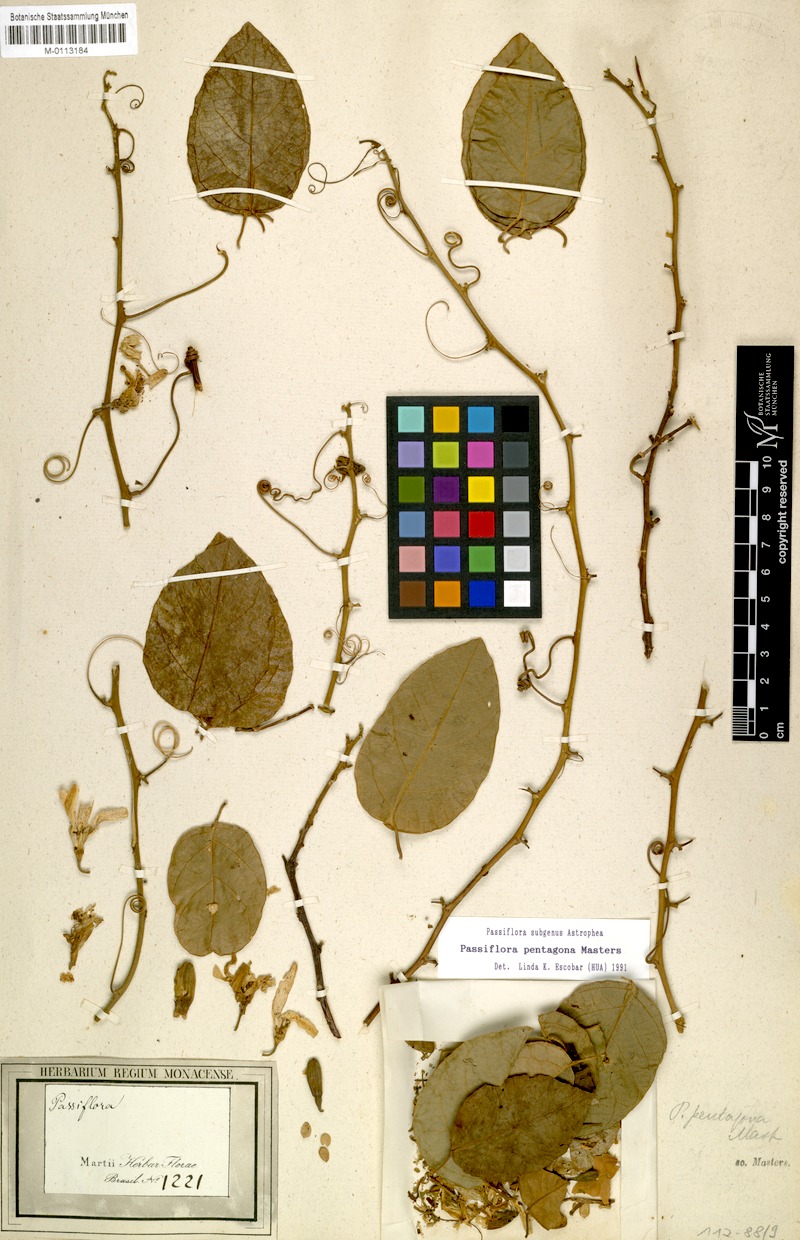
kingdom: Plantae
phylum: Tracheophyta
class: Magnoliopsida
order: Malpighiales
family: Passifloraceae
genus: Passiflora
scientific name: Passiflora pentagona
